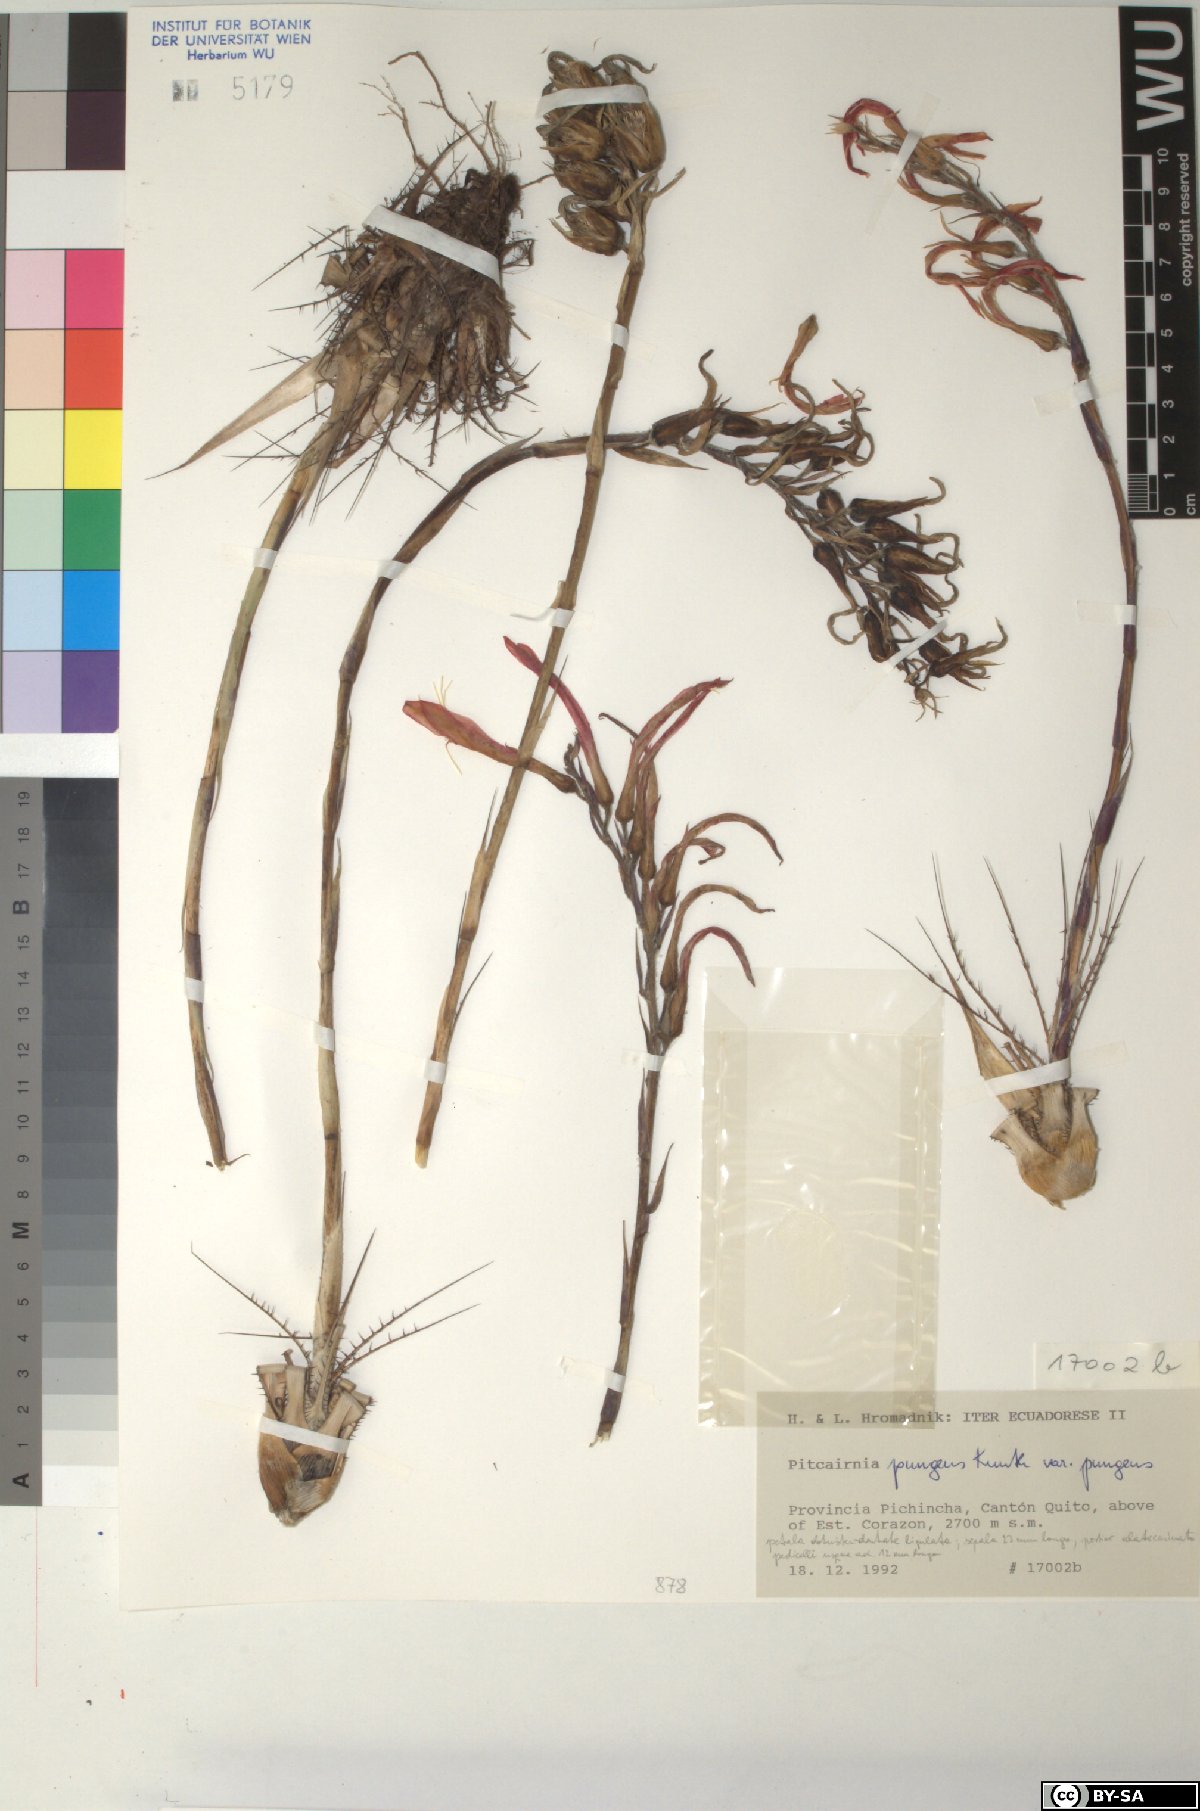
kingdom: Plantae
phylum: Tracheophyta
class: Liliopsida
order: Poales
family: Bromeliaceae
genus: Pitcairnia
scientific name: Pitcairnia pungens
